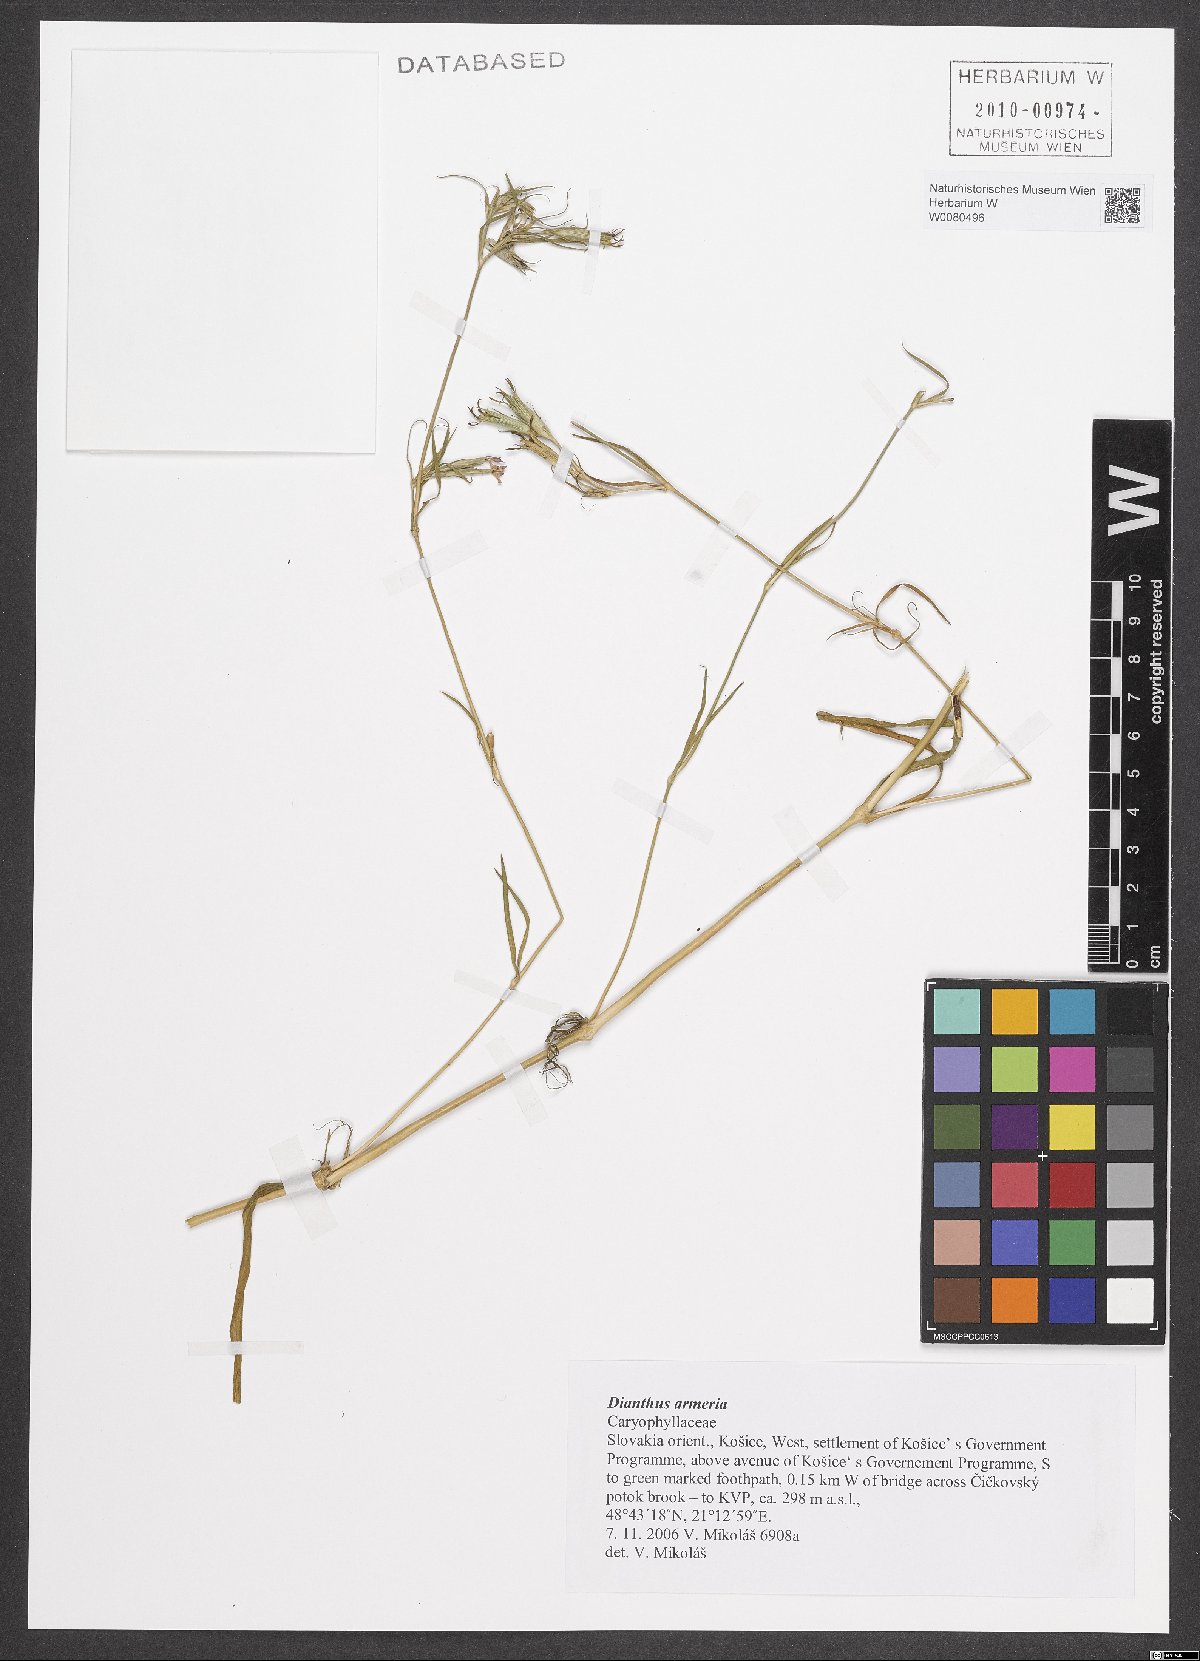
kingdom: Plantae
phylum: Tracheophyta
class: Magnoliopsida
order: Caryophyllales
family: Caryophyllaceae
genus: Dianthus
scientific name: Dianthus armeria
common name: Deptford pink
